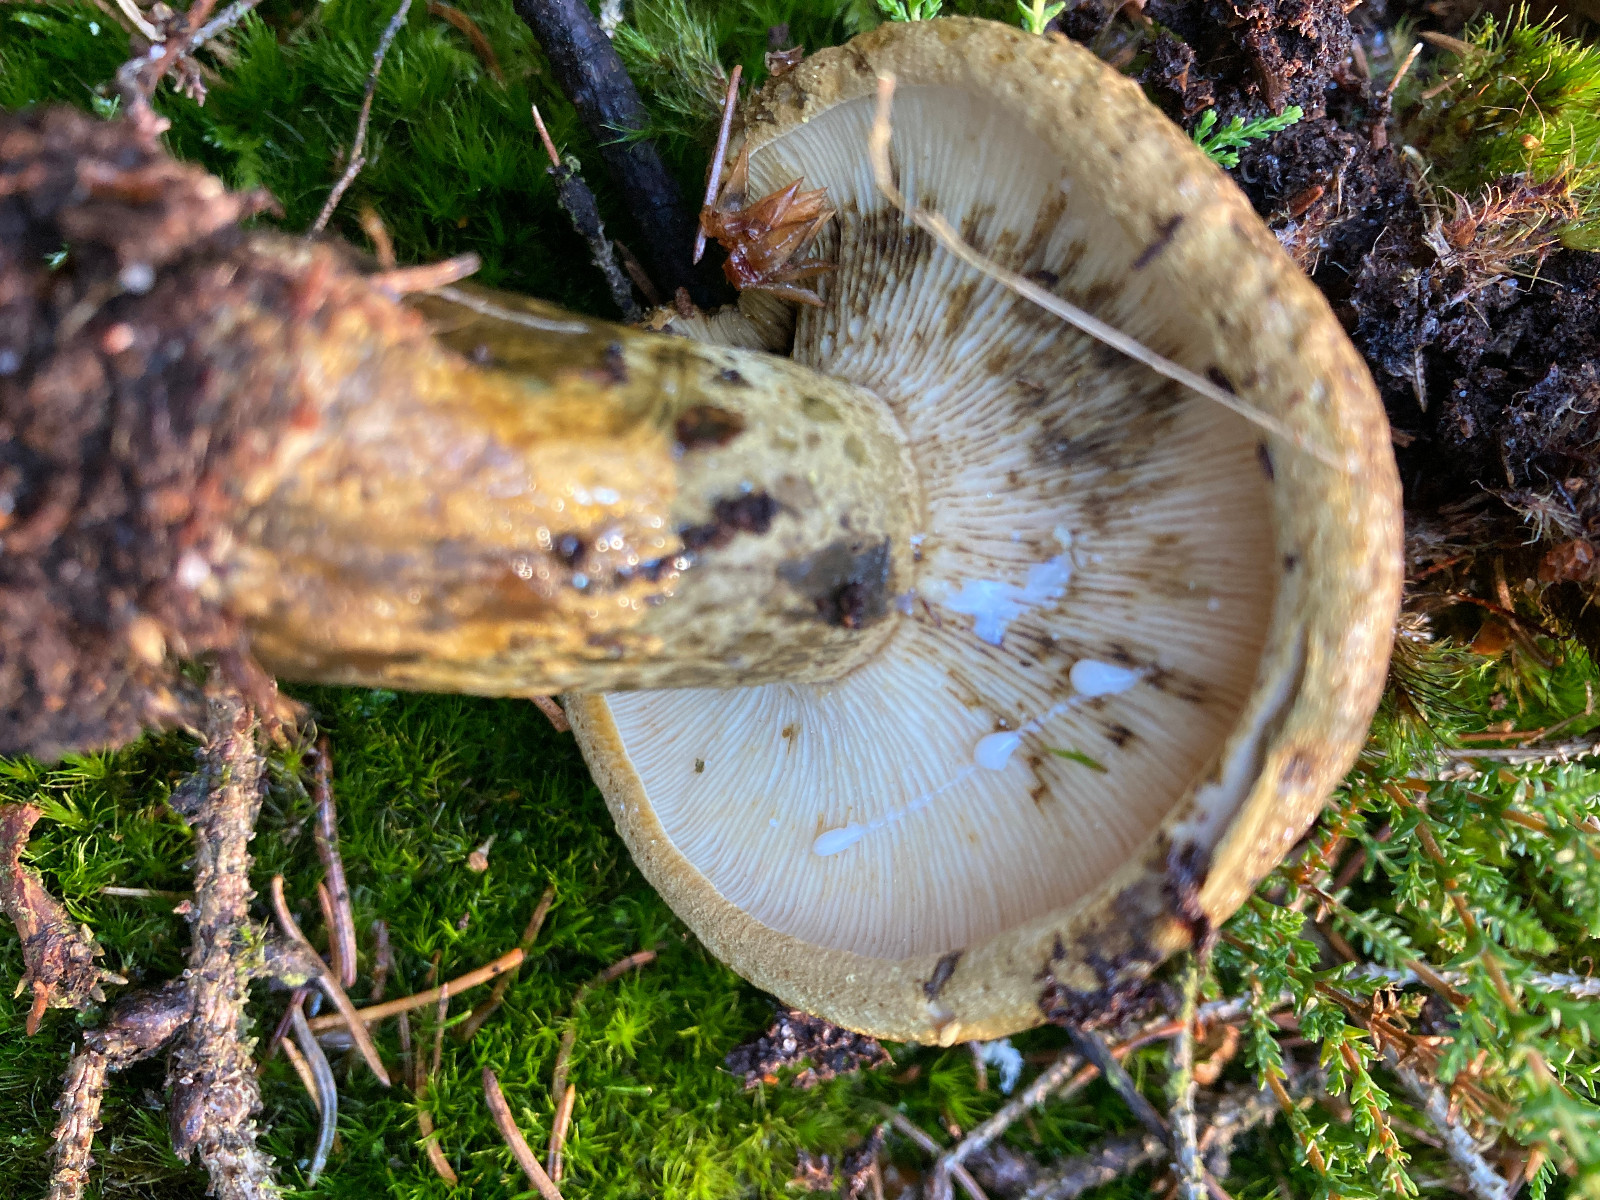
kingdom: Fungi
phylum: Basidiomycota
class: Agaricomycetes
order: Russulales
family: Russulaceae
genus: Lactarius
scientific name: Lactarius necator
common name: manddraber-mælkehat
